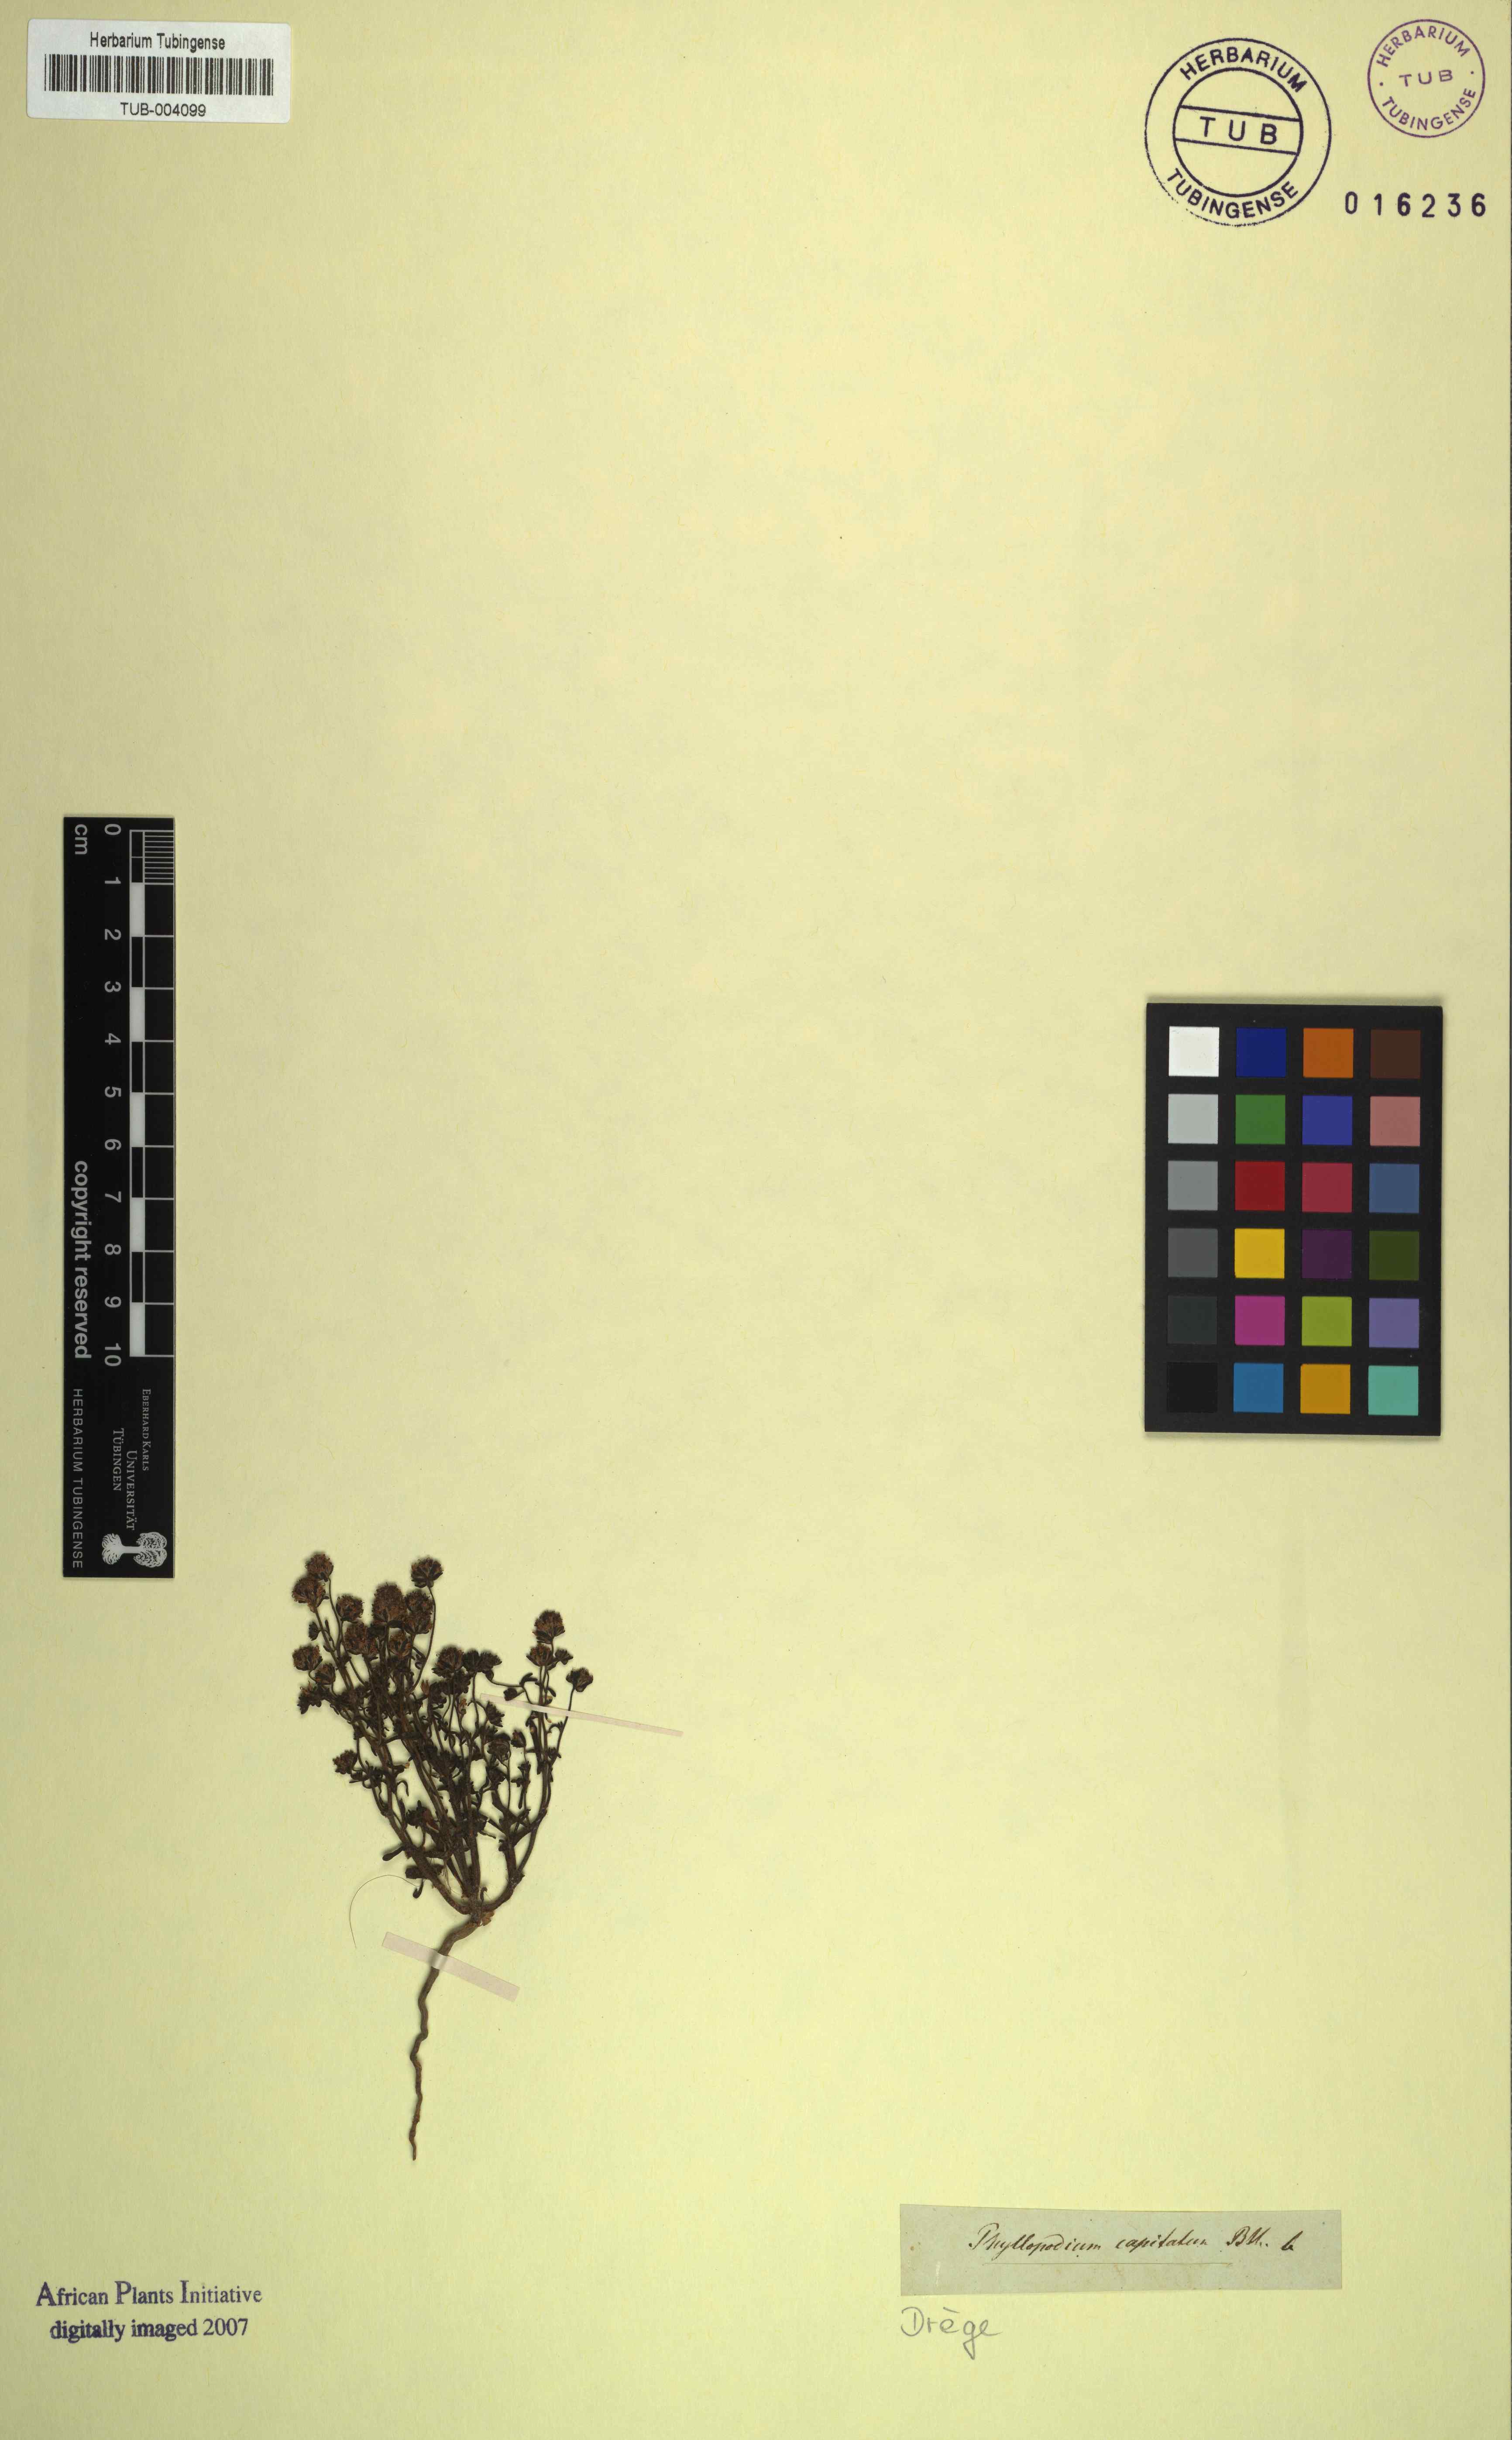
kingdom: Plantae
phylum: Tracheophyta
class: Magnoliopsida
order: Lamiales
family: Scrophulariaceae
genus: Phyllopodium
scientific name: Phyllopodium heterophyllum
